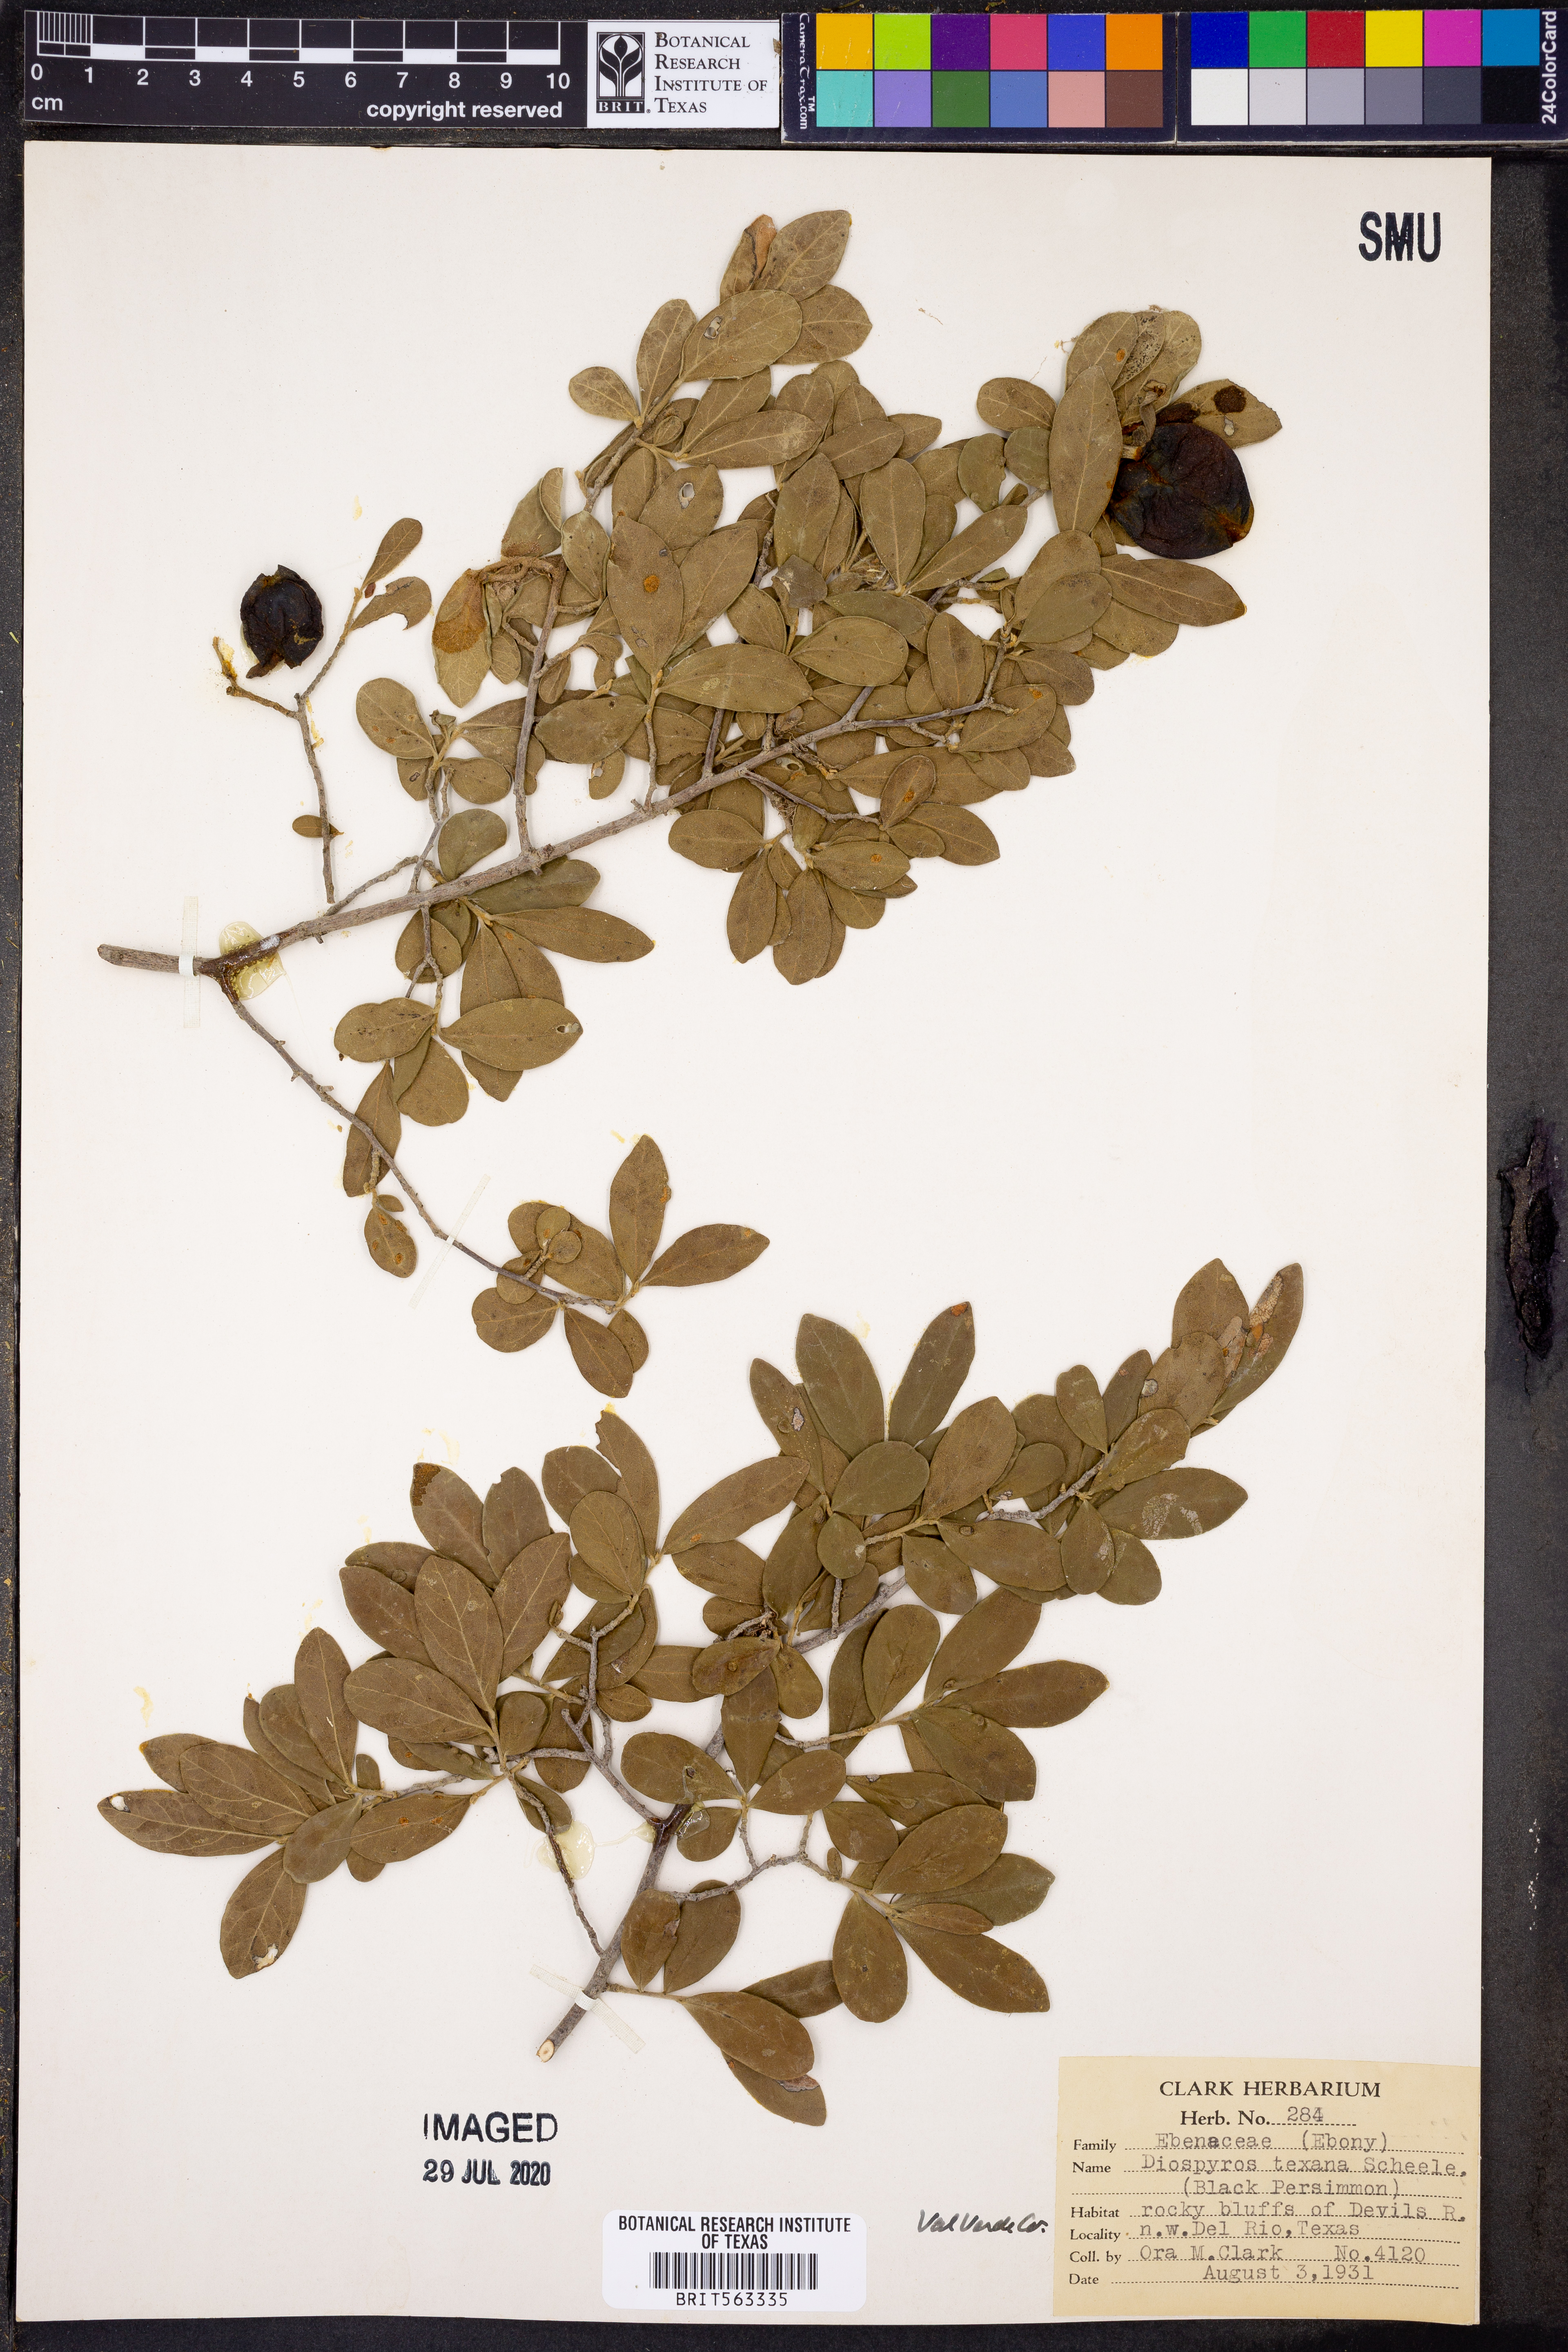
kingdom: Plantae
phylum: Tracheophyta
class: Magnoliopsida
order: Ericales
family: Ebenaceae
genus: Diospyros
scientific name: Diospyros texana
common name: Texas persimmon
